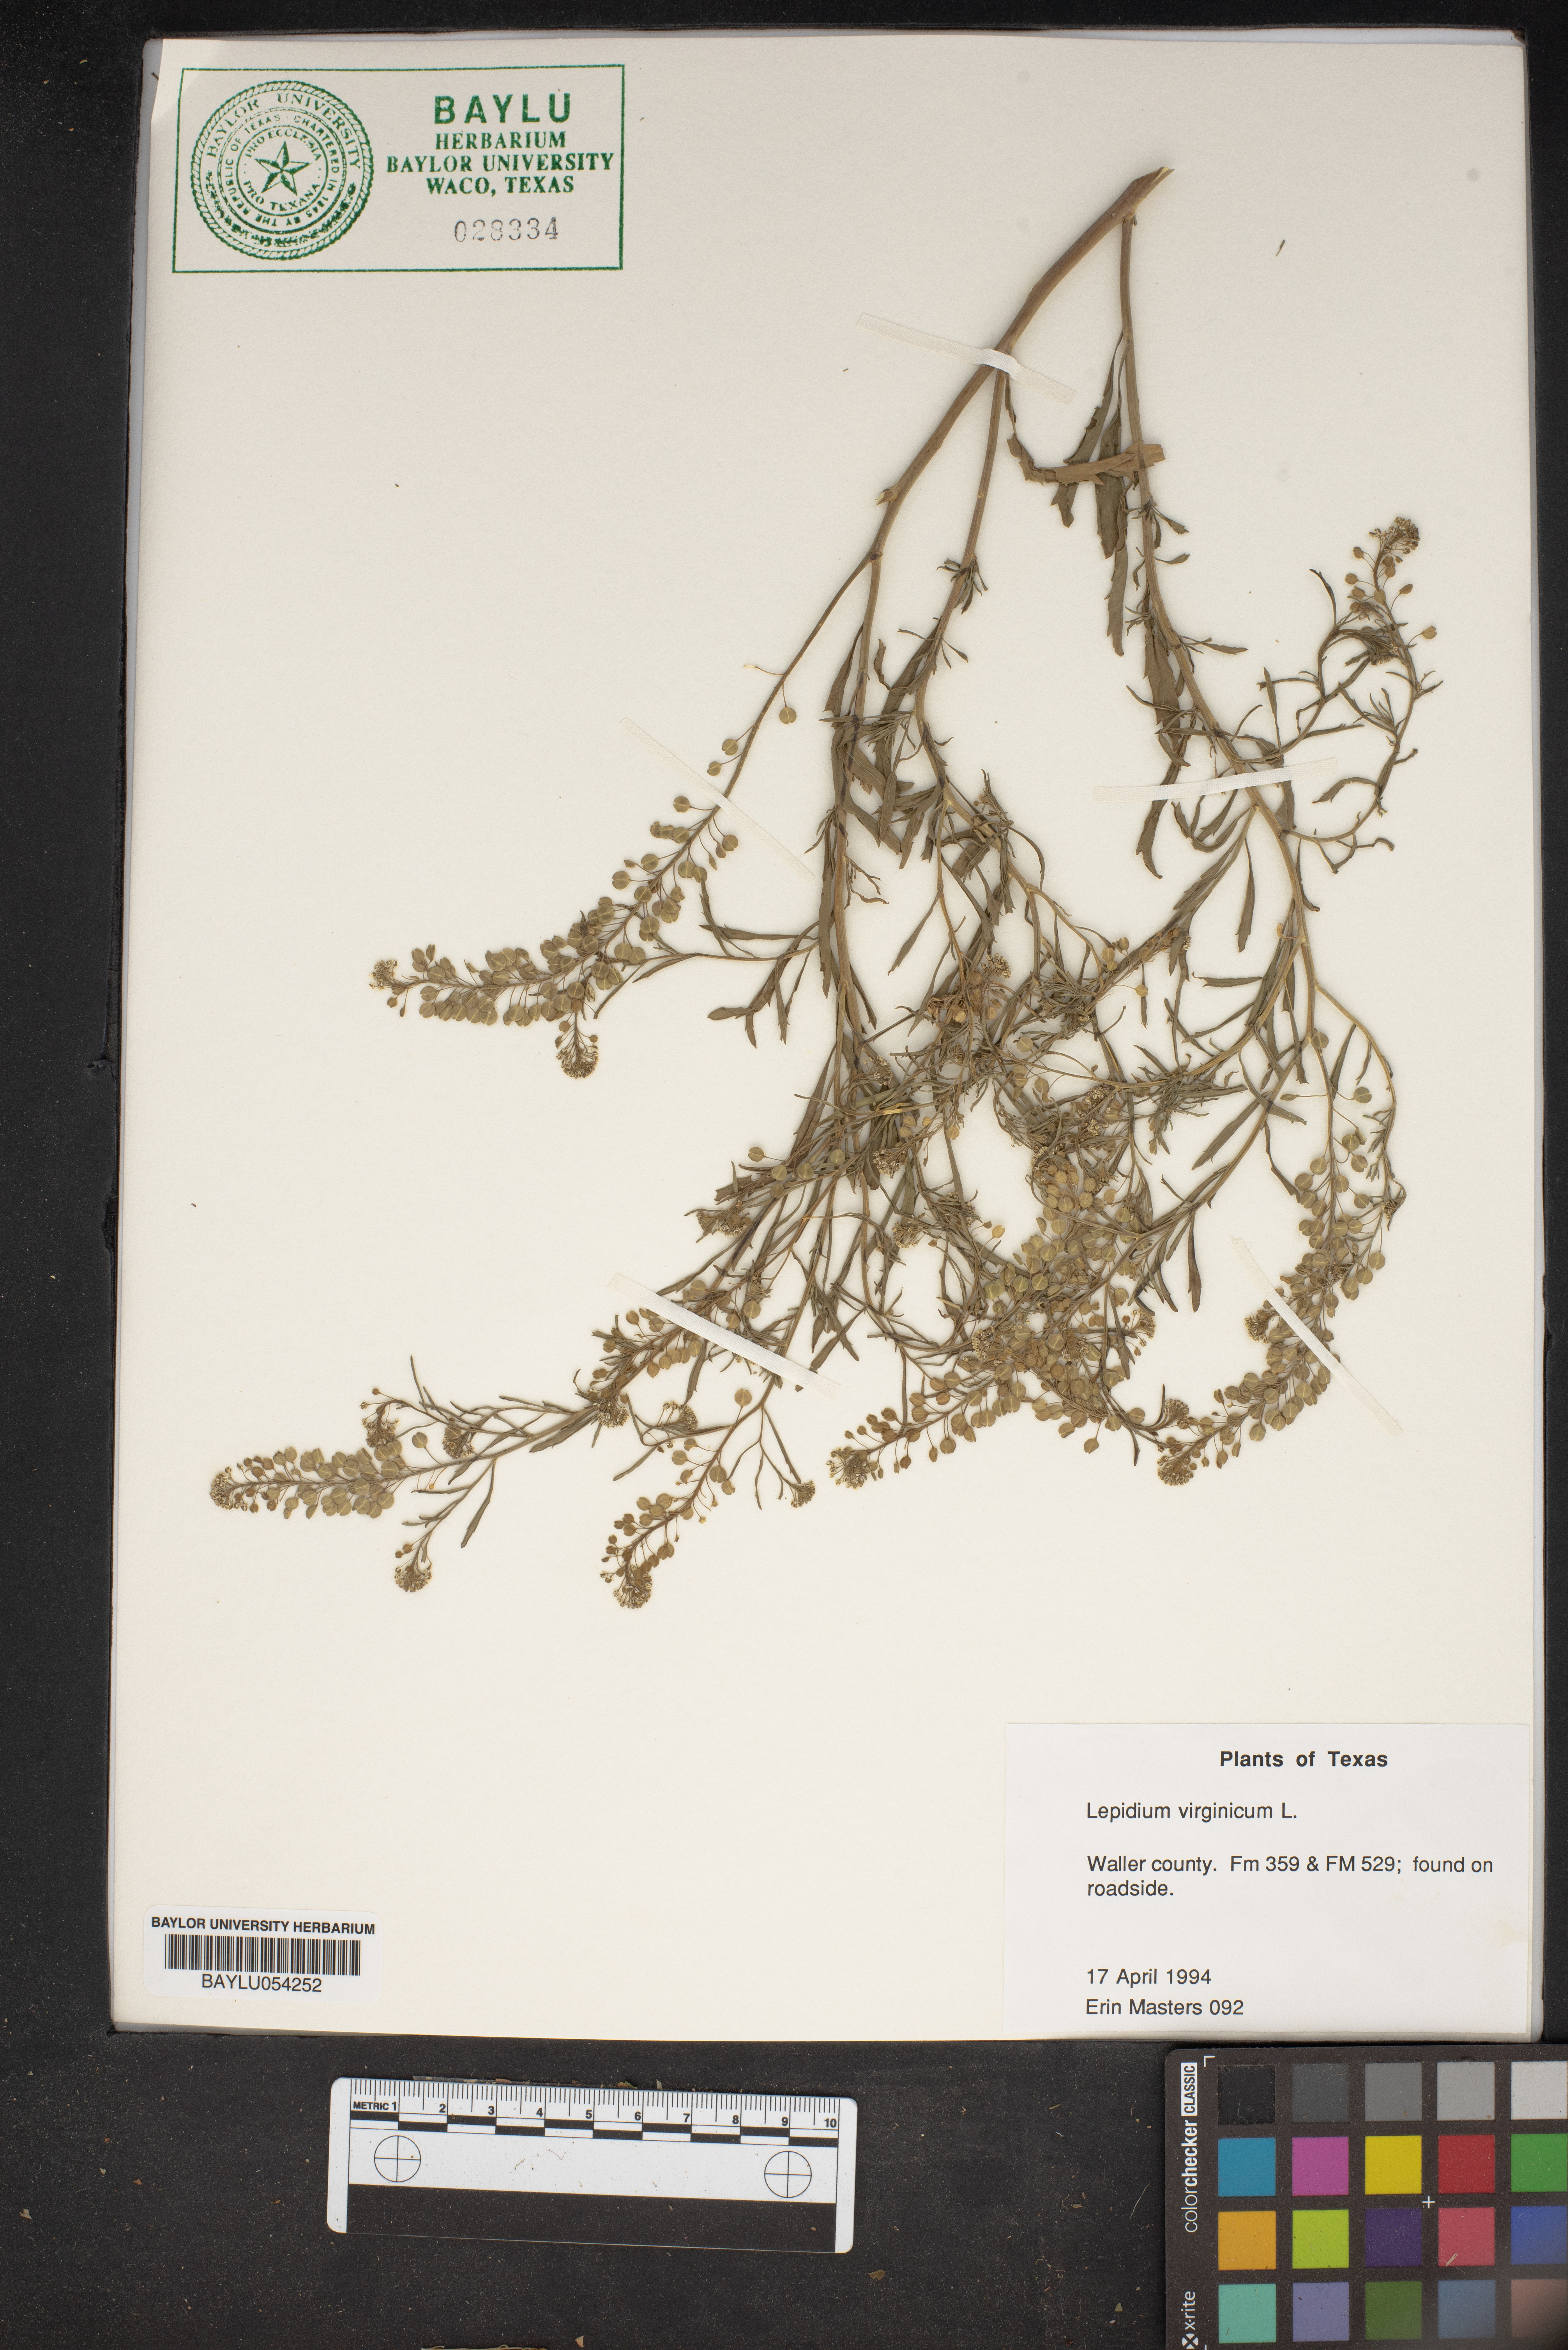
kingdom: Plantae
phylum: Tracheophyta
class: Magnoliopsida
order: Brassicales
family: Brassicaceae
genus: Lepidium
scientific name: Lepidium virginicum
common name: Least pepperwort
